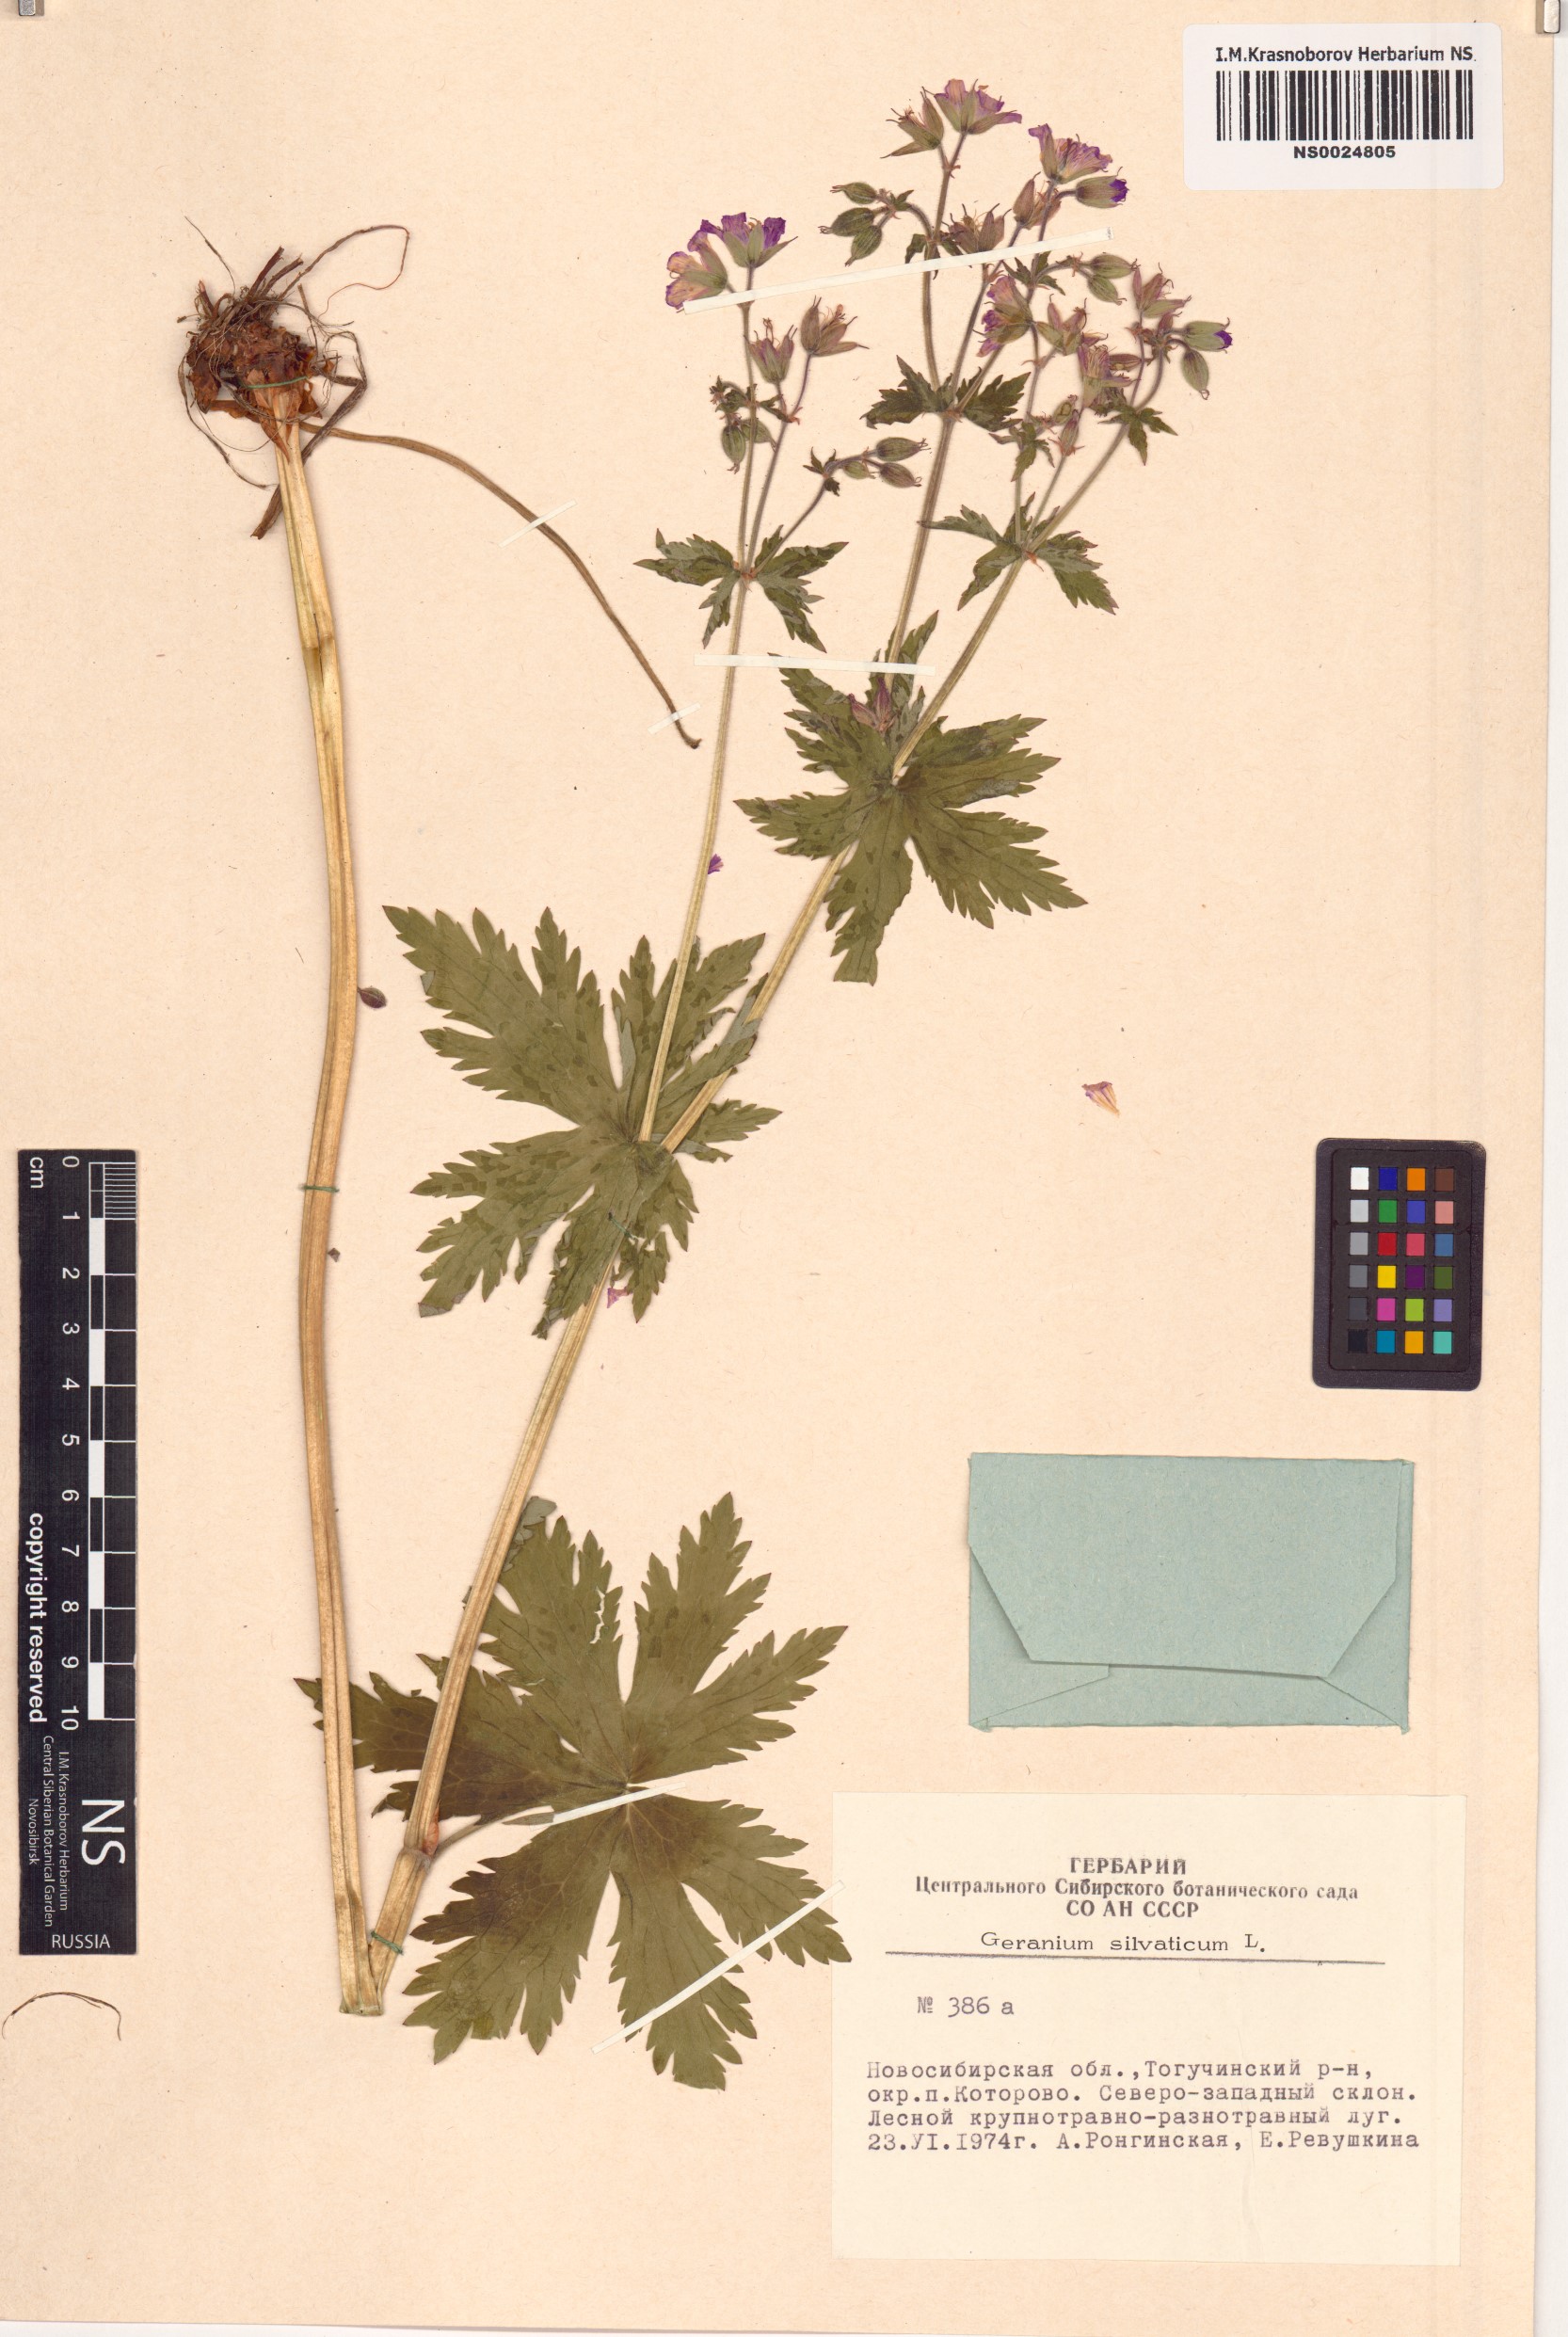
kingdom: Plantae
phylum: Tracheophyta
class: Magnoliopsida
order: Geraniales
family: Geraniaceae
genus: Geranium
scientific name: Geranium sylvaticum
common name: Wood crane's-bill
